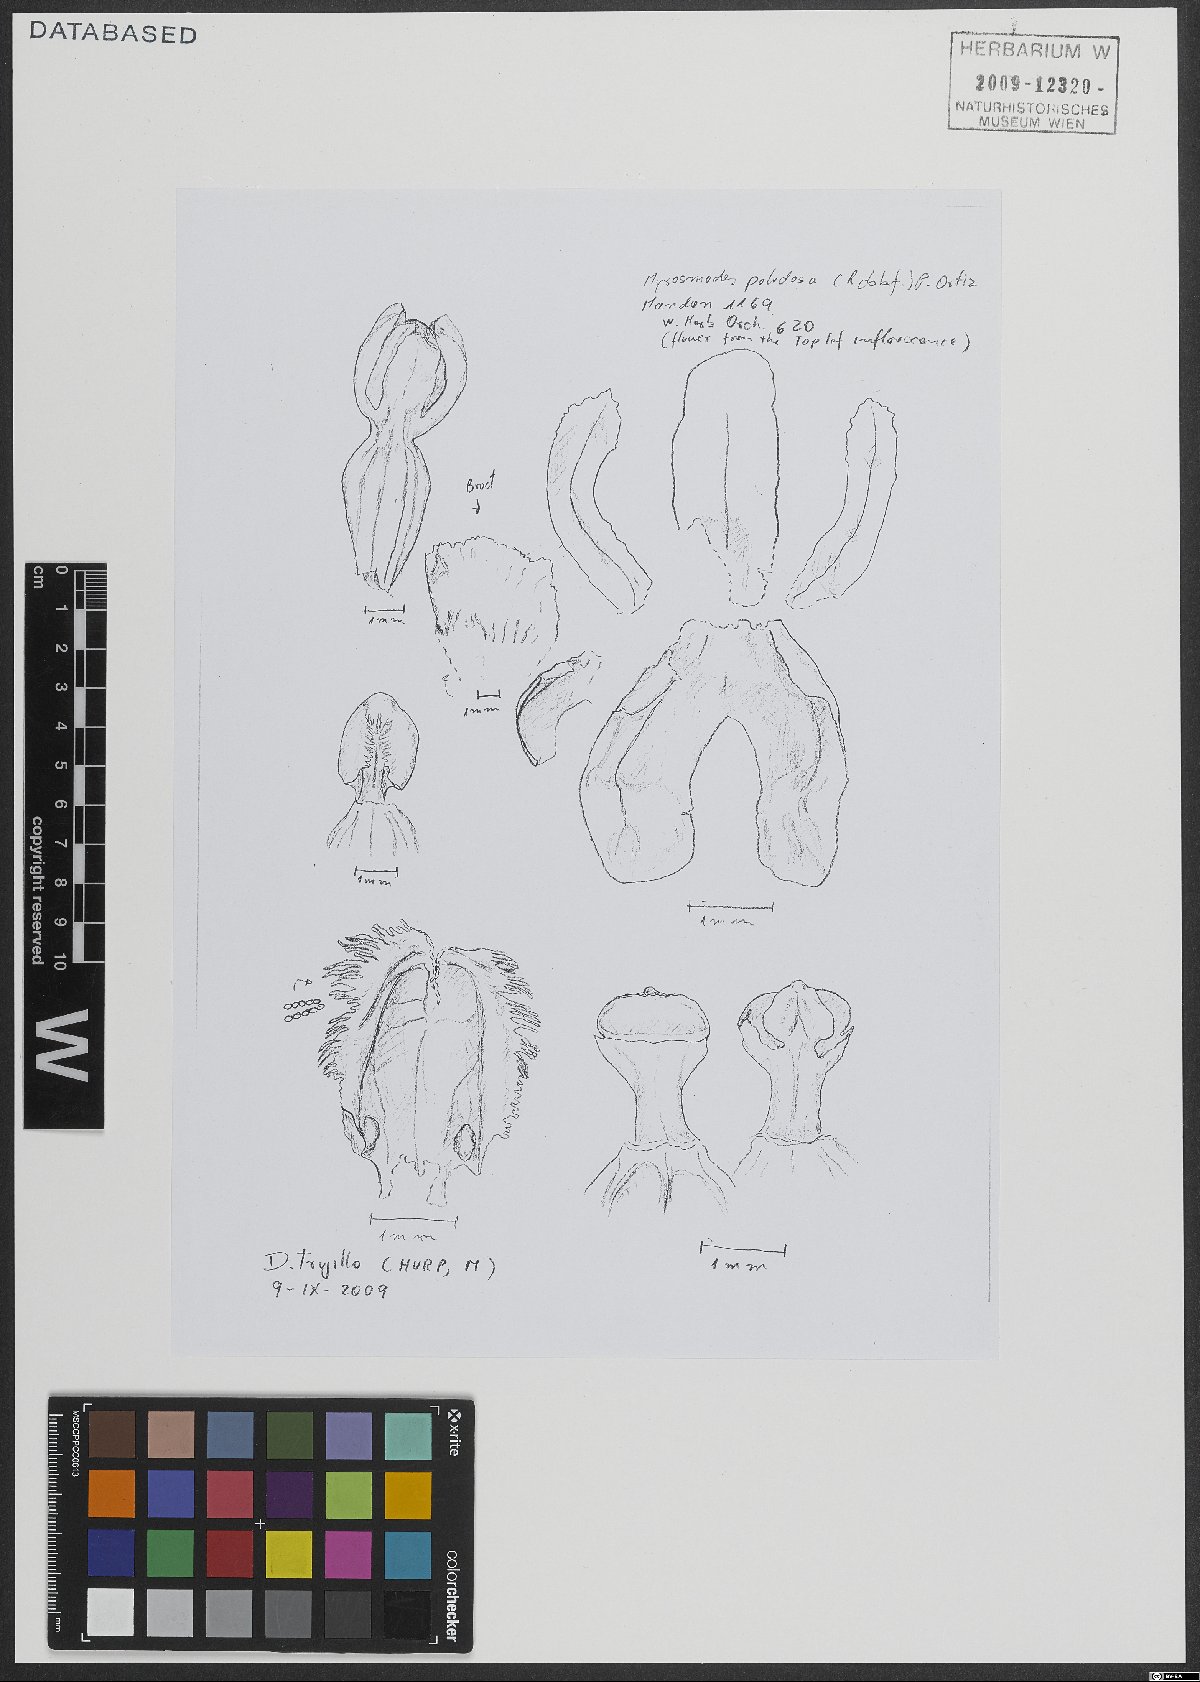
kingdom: Plantae
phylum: Tracheophyta
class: Liliopsida
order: Asparagales
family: Orchidaceae
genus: Myrosmodes
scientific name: Myrosmodes paludosa
